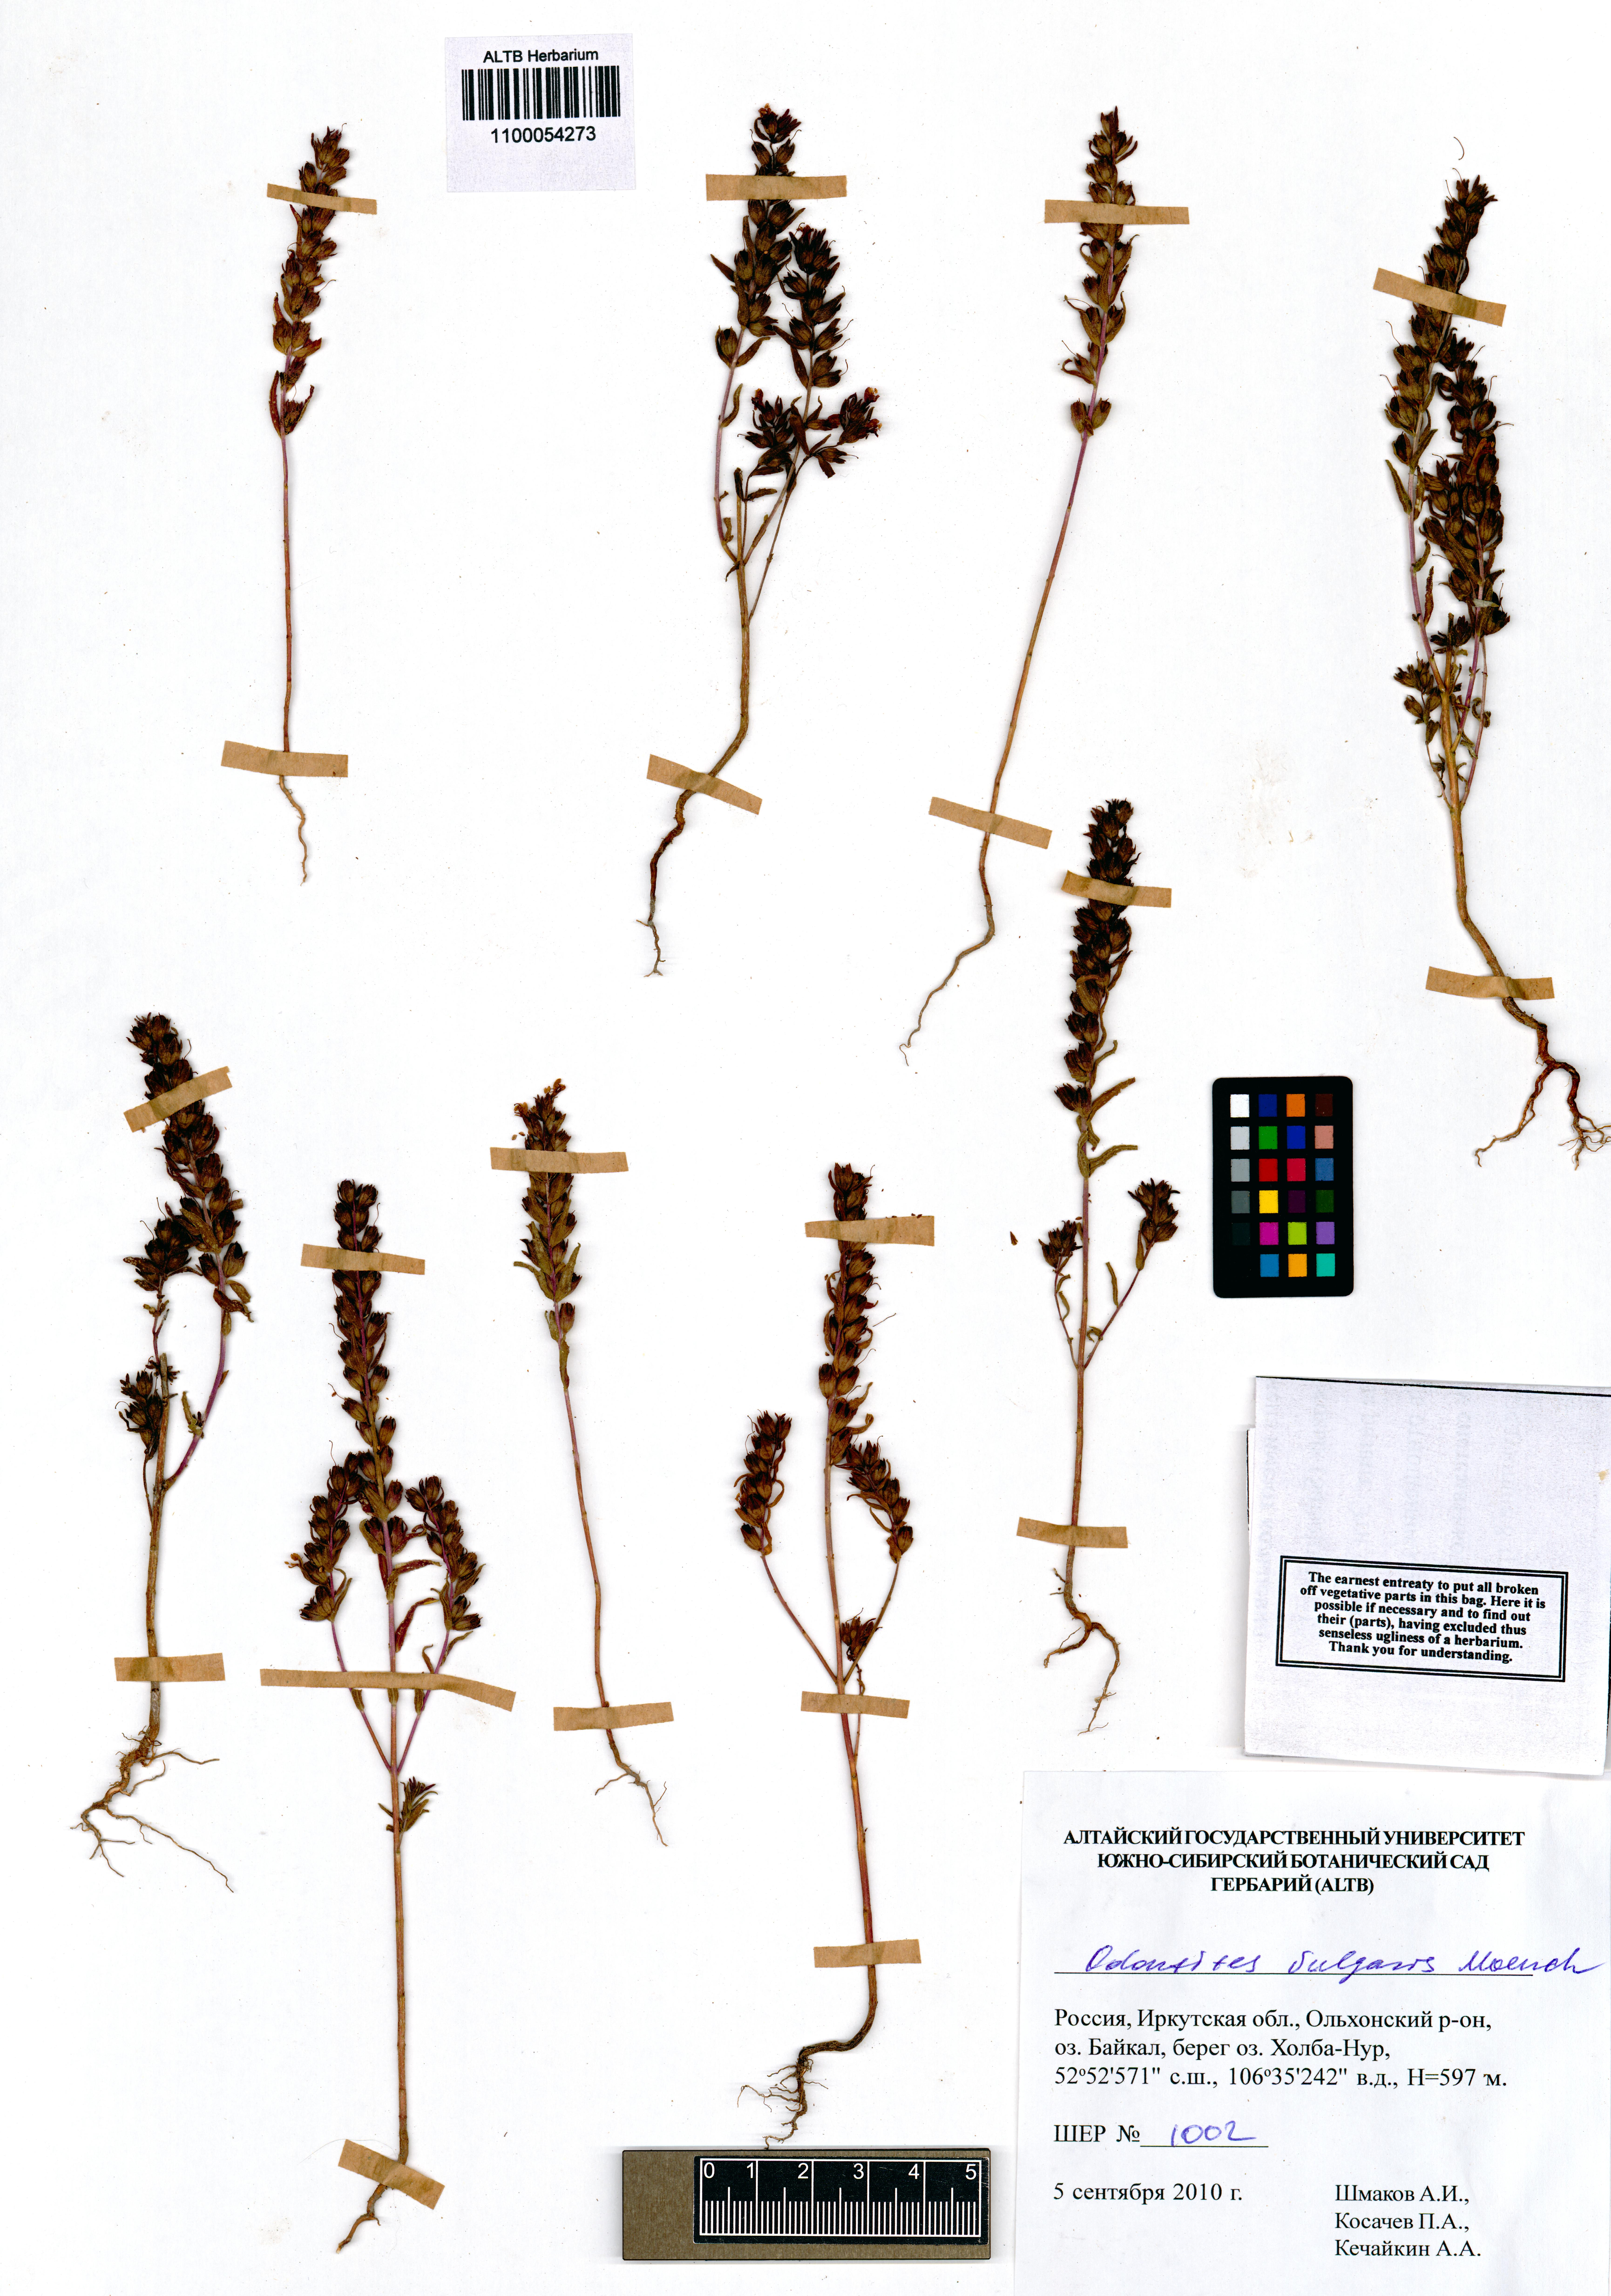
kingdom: Plantae
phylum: Tracheophyta
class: Magnoliopsida
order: Lamiales
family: Orobanchaceae
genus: Odontites
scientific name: Odontites vulgaris
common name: Broomrape
